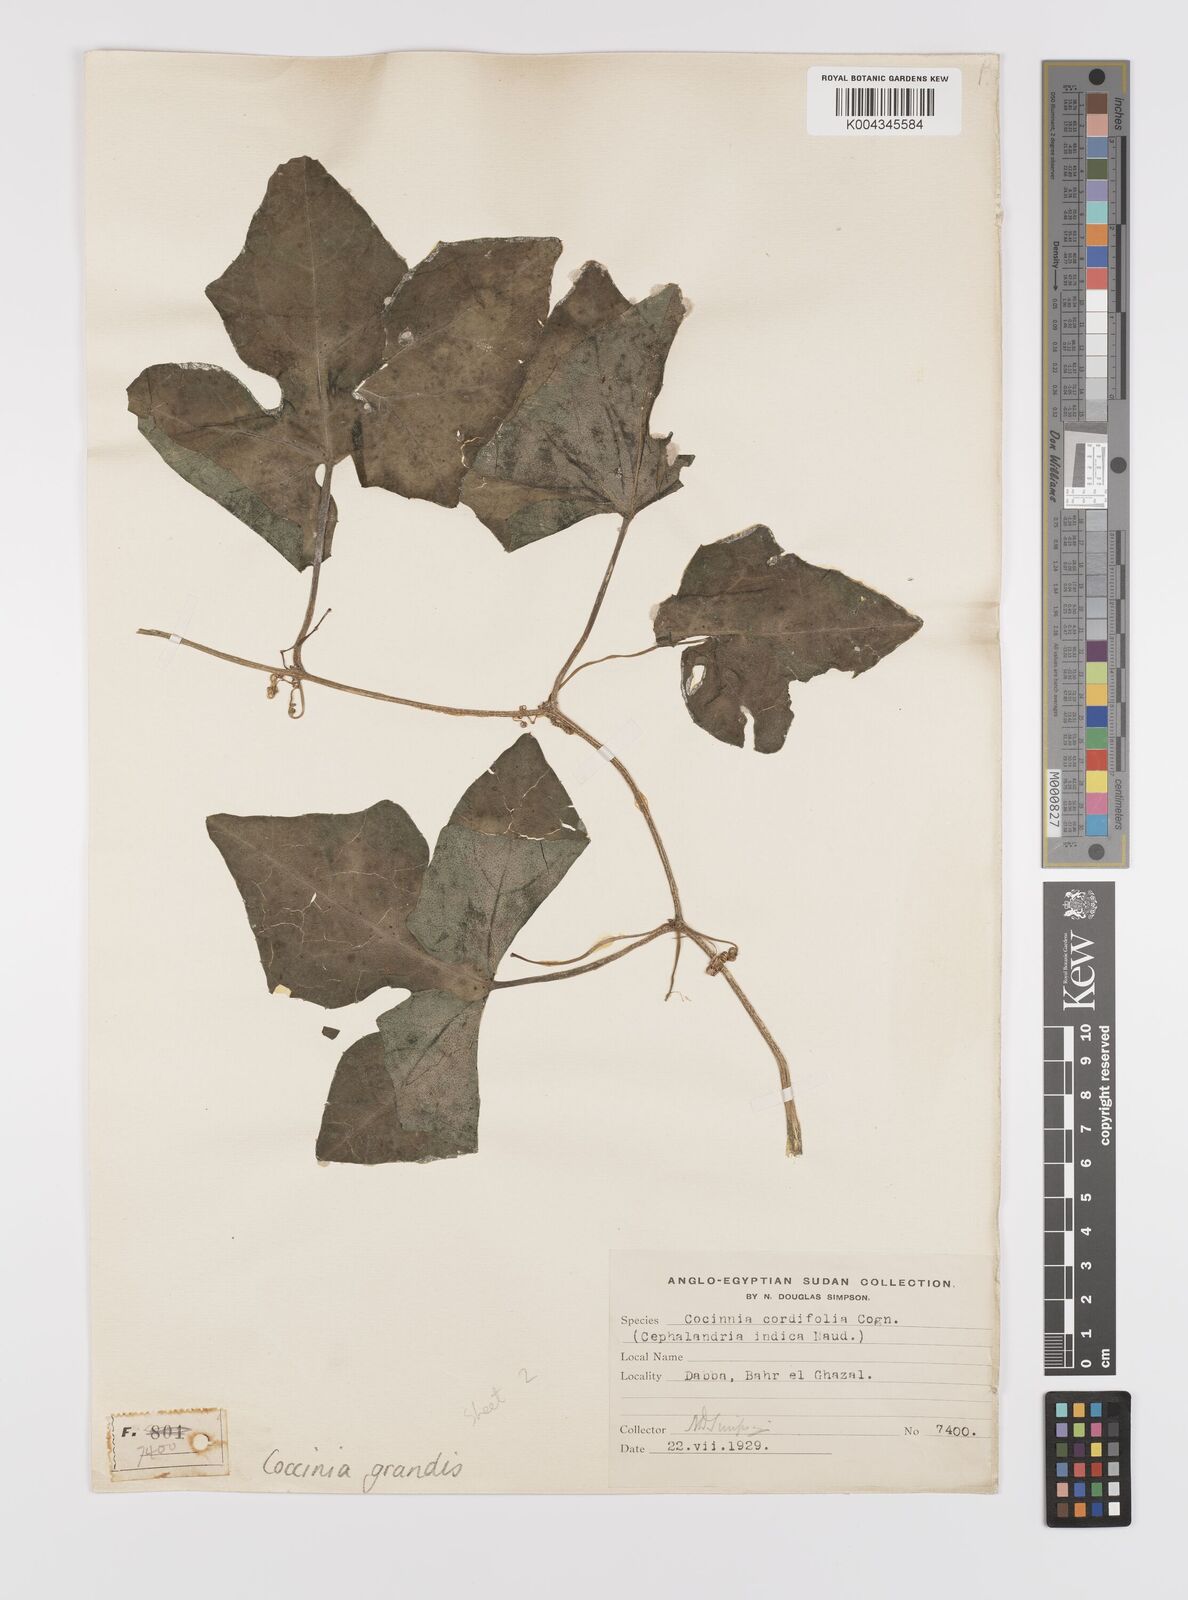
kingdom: Plantae
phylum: Tracheophyta
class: Magnoliopsida
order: Cucurbitales
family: Cucurbitaceae
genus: Coccinia
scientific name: Coccinia grandis
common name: Ivy gourd
